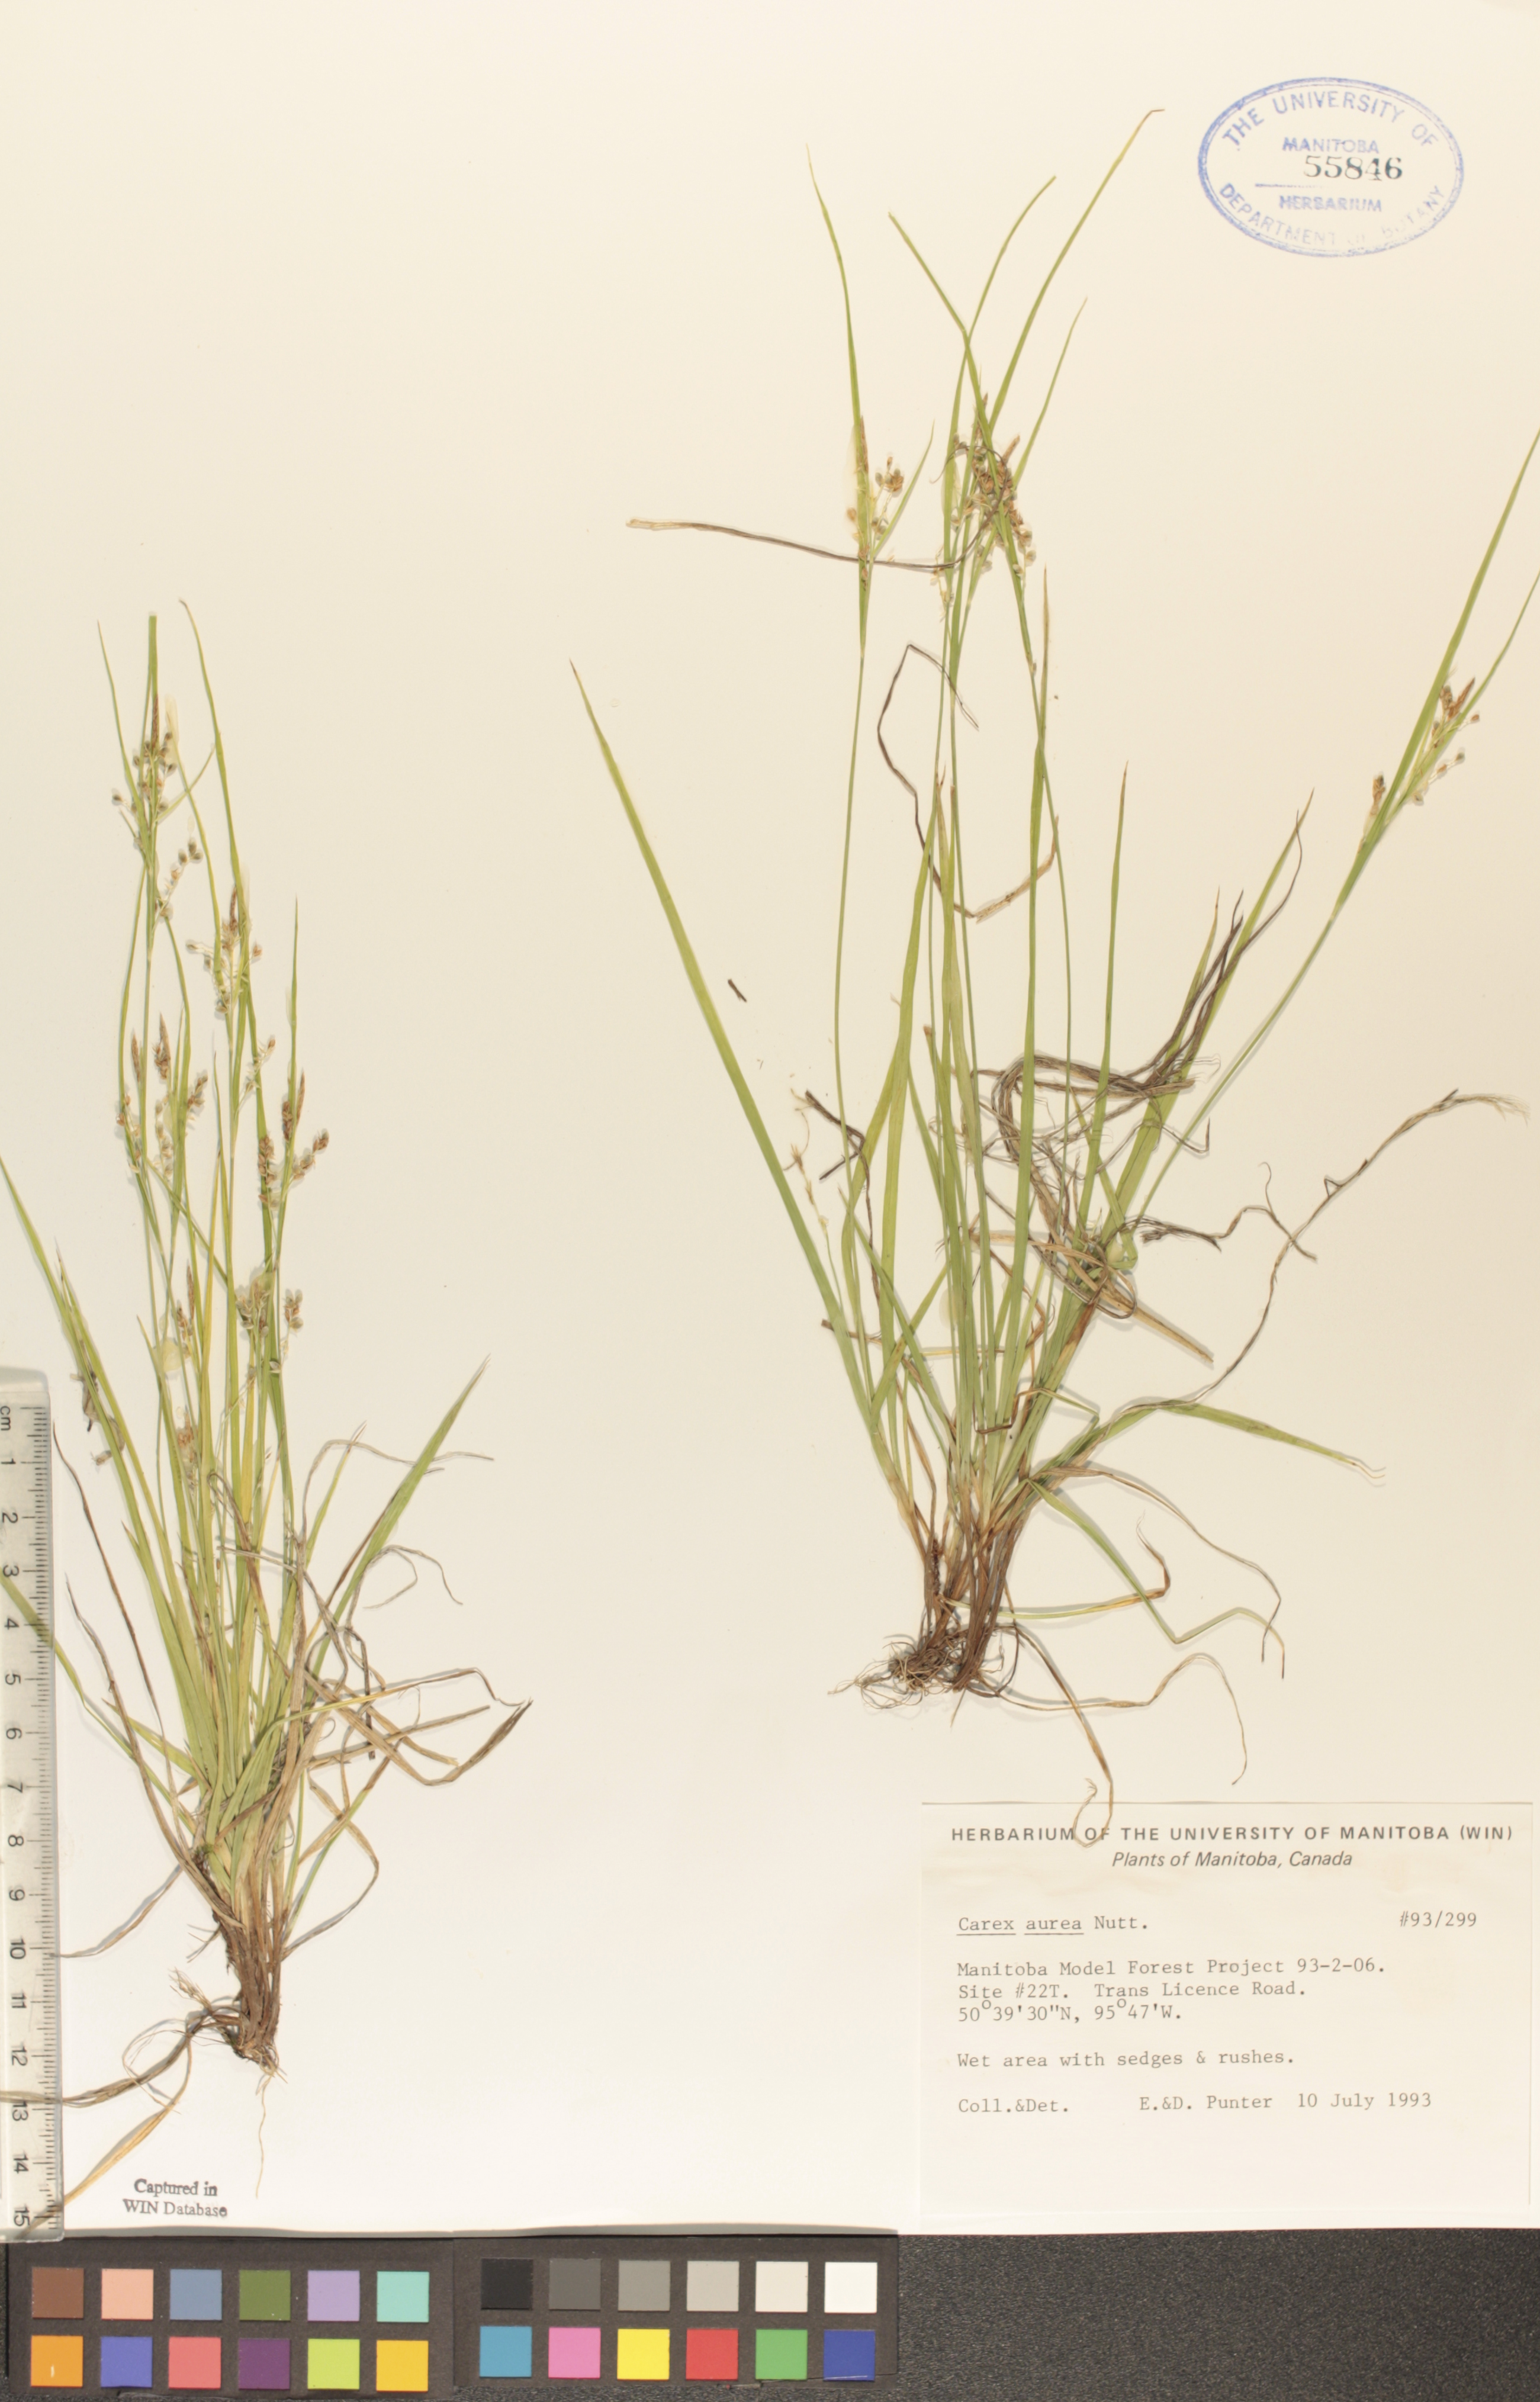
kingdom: Plantae
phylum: Tracheophyta
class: Liliopsida
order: Poales
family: Cyperaceae
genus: Carex
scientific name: Carex aurea
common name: Golden sedge
